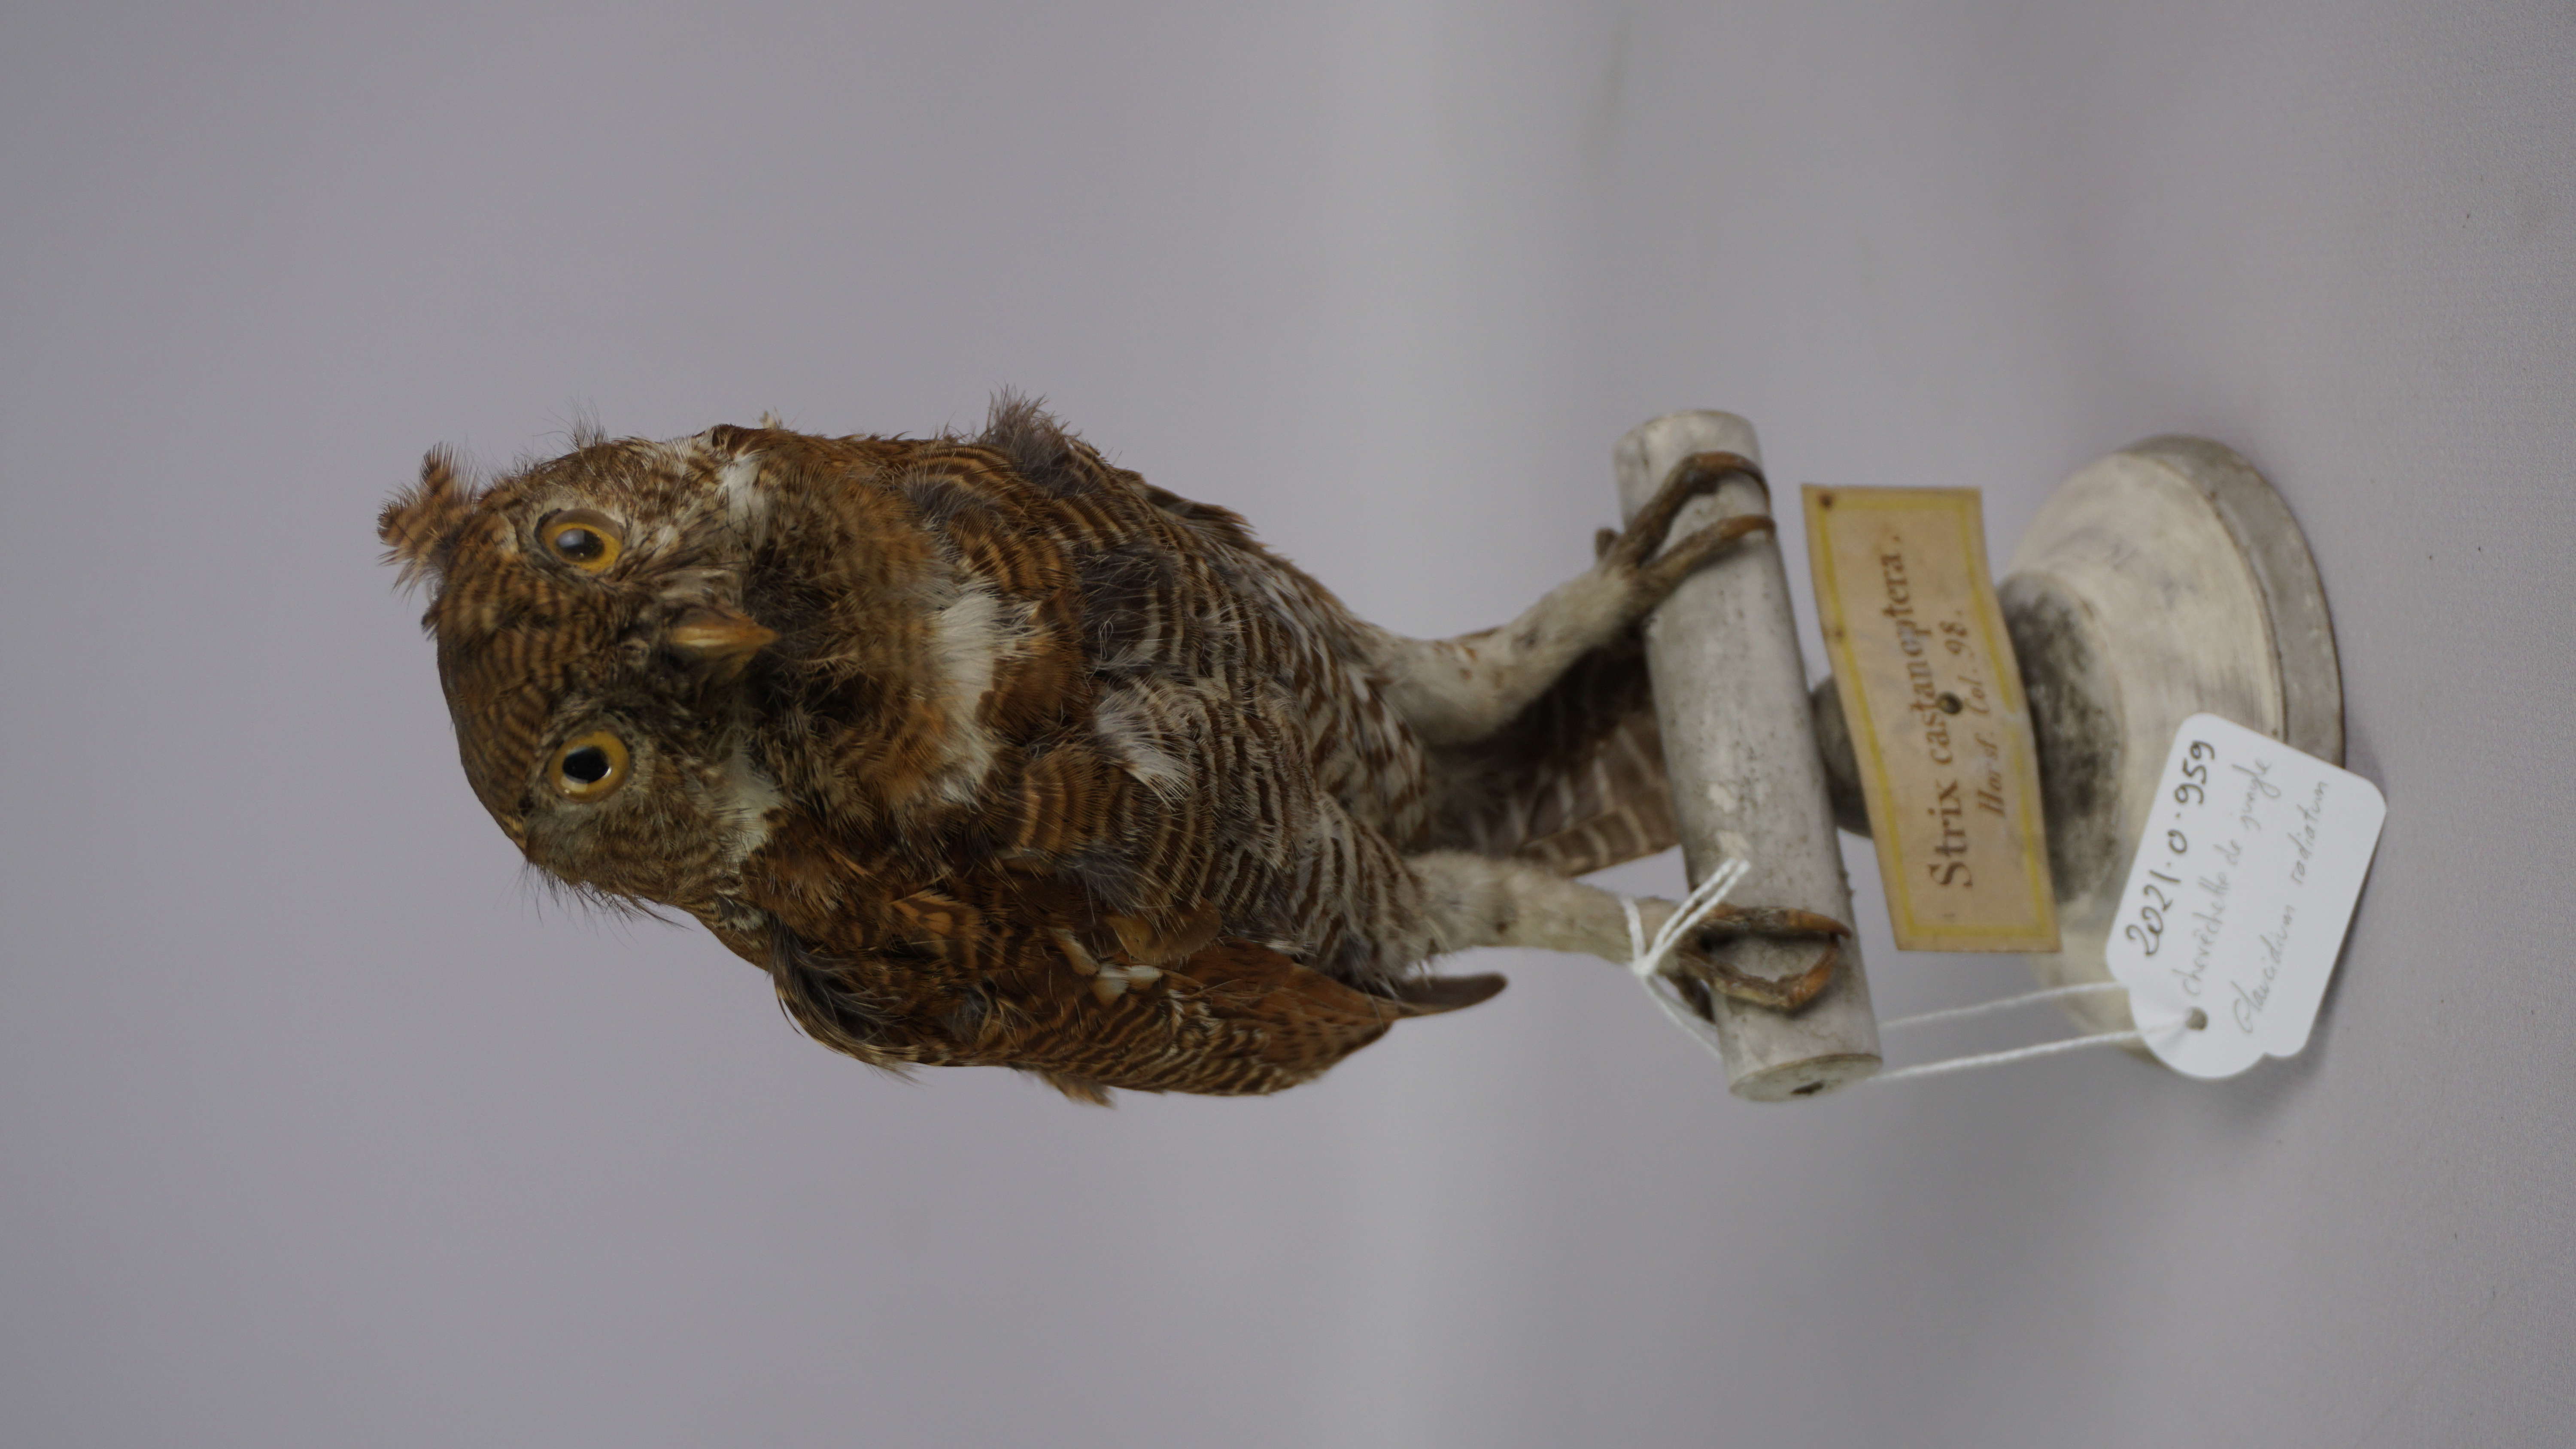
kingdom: Animalia
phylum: Chordata
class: Aves
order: Strigiformes
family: Strigidae
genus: Glaucidium
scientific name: Glaucidium radiatum
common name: Jungle owlet
